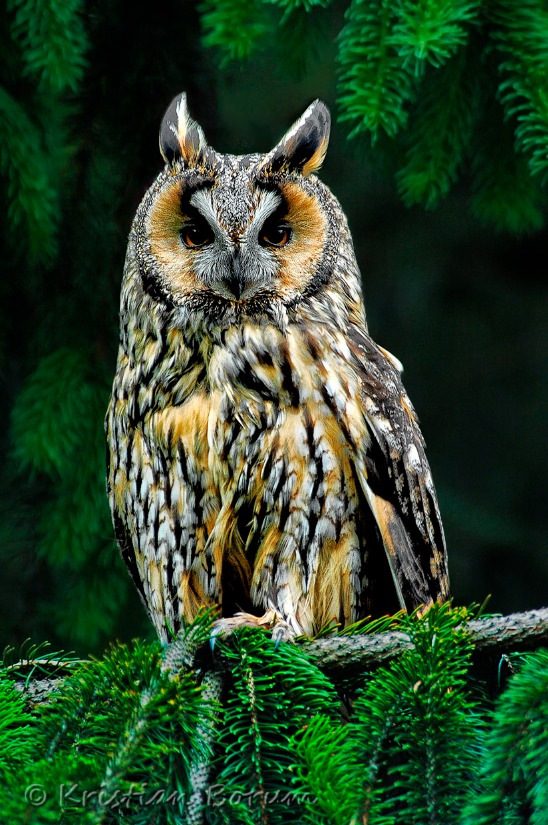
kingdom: Animalia
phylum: Chordata
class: Aves
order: Strigiformes
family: Strigidae
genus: Asio
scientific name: Asio otus
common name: Skovhornugle
